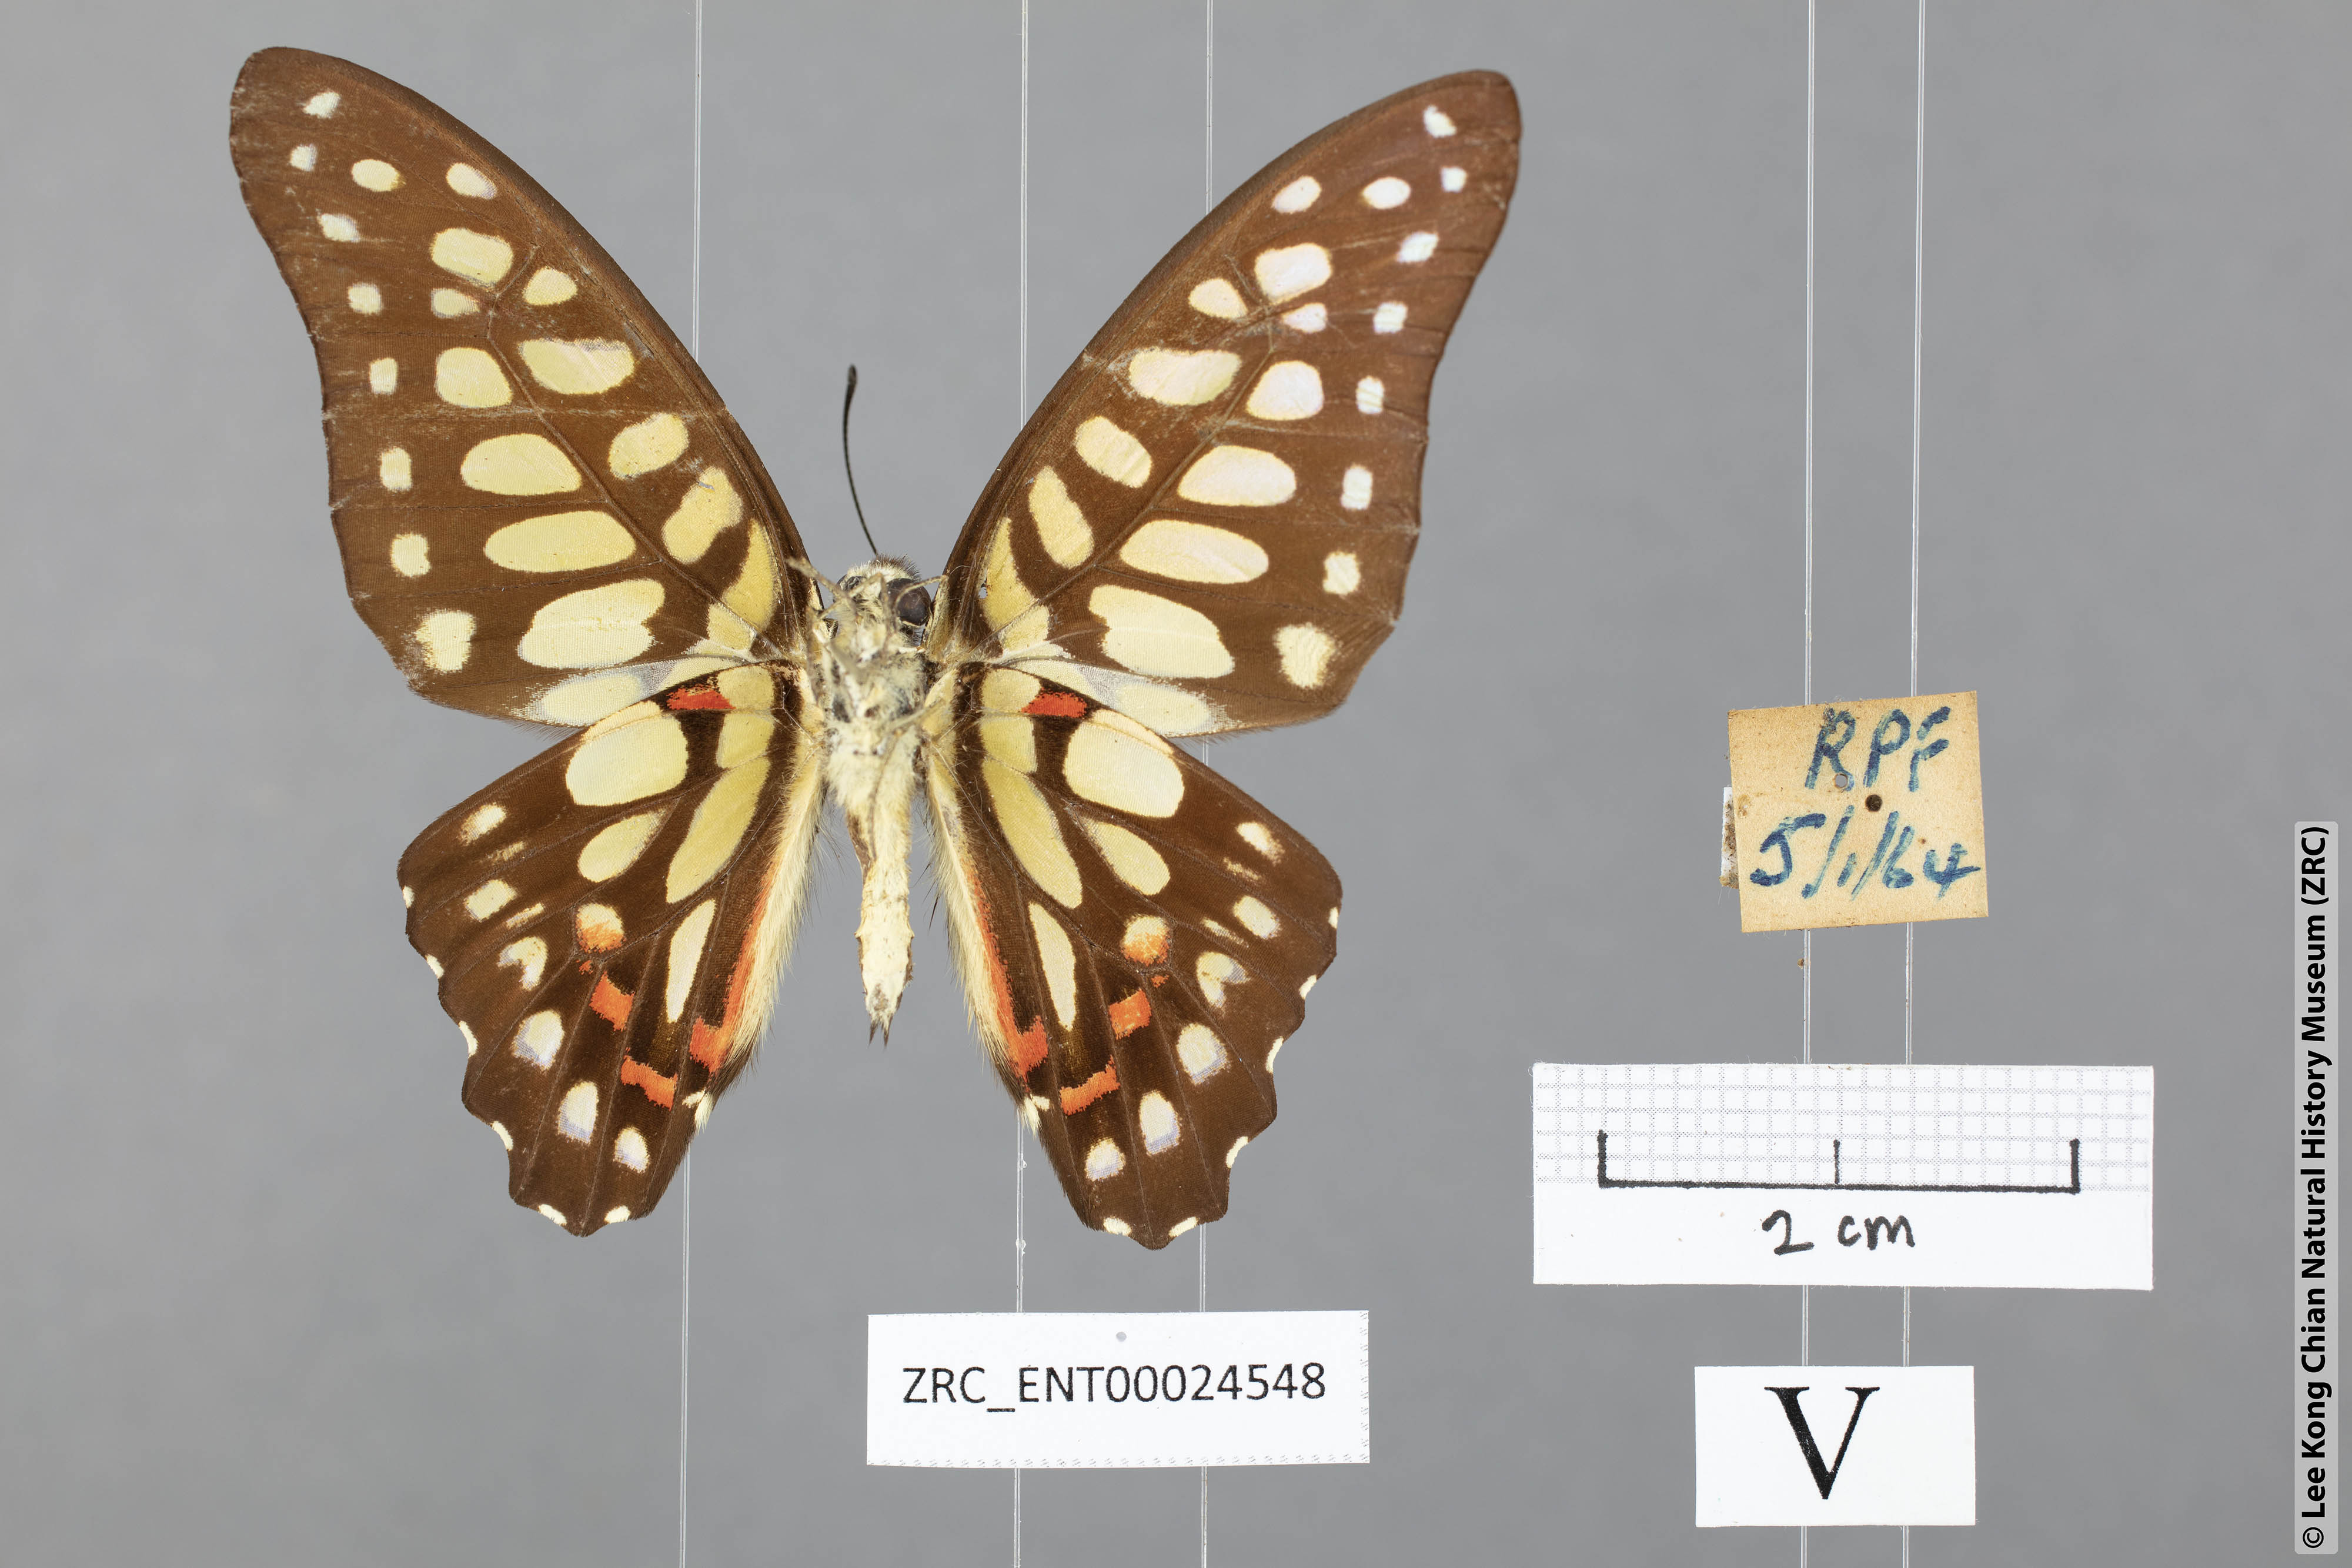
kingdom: Animalia
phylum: Arthropoda
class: Insecta
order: Lepidoptera
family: Papilionidae
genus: Graphium
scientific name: Graphium arycles
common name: Spotted jay
